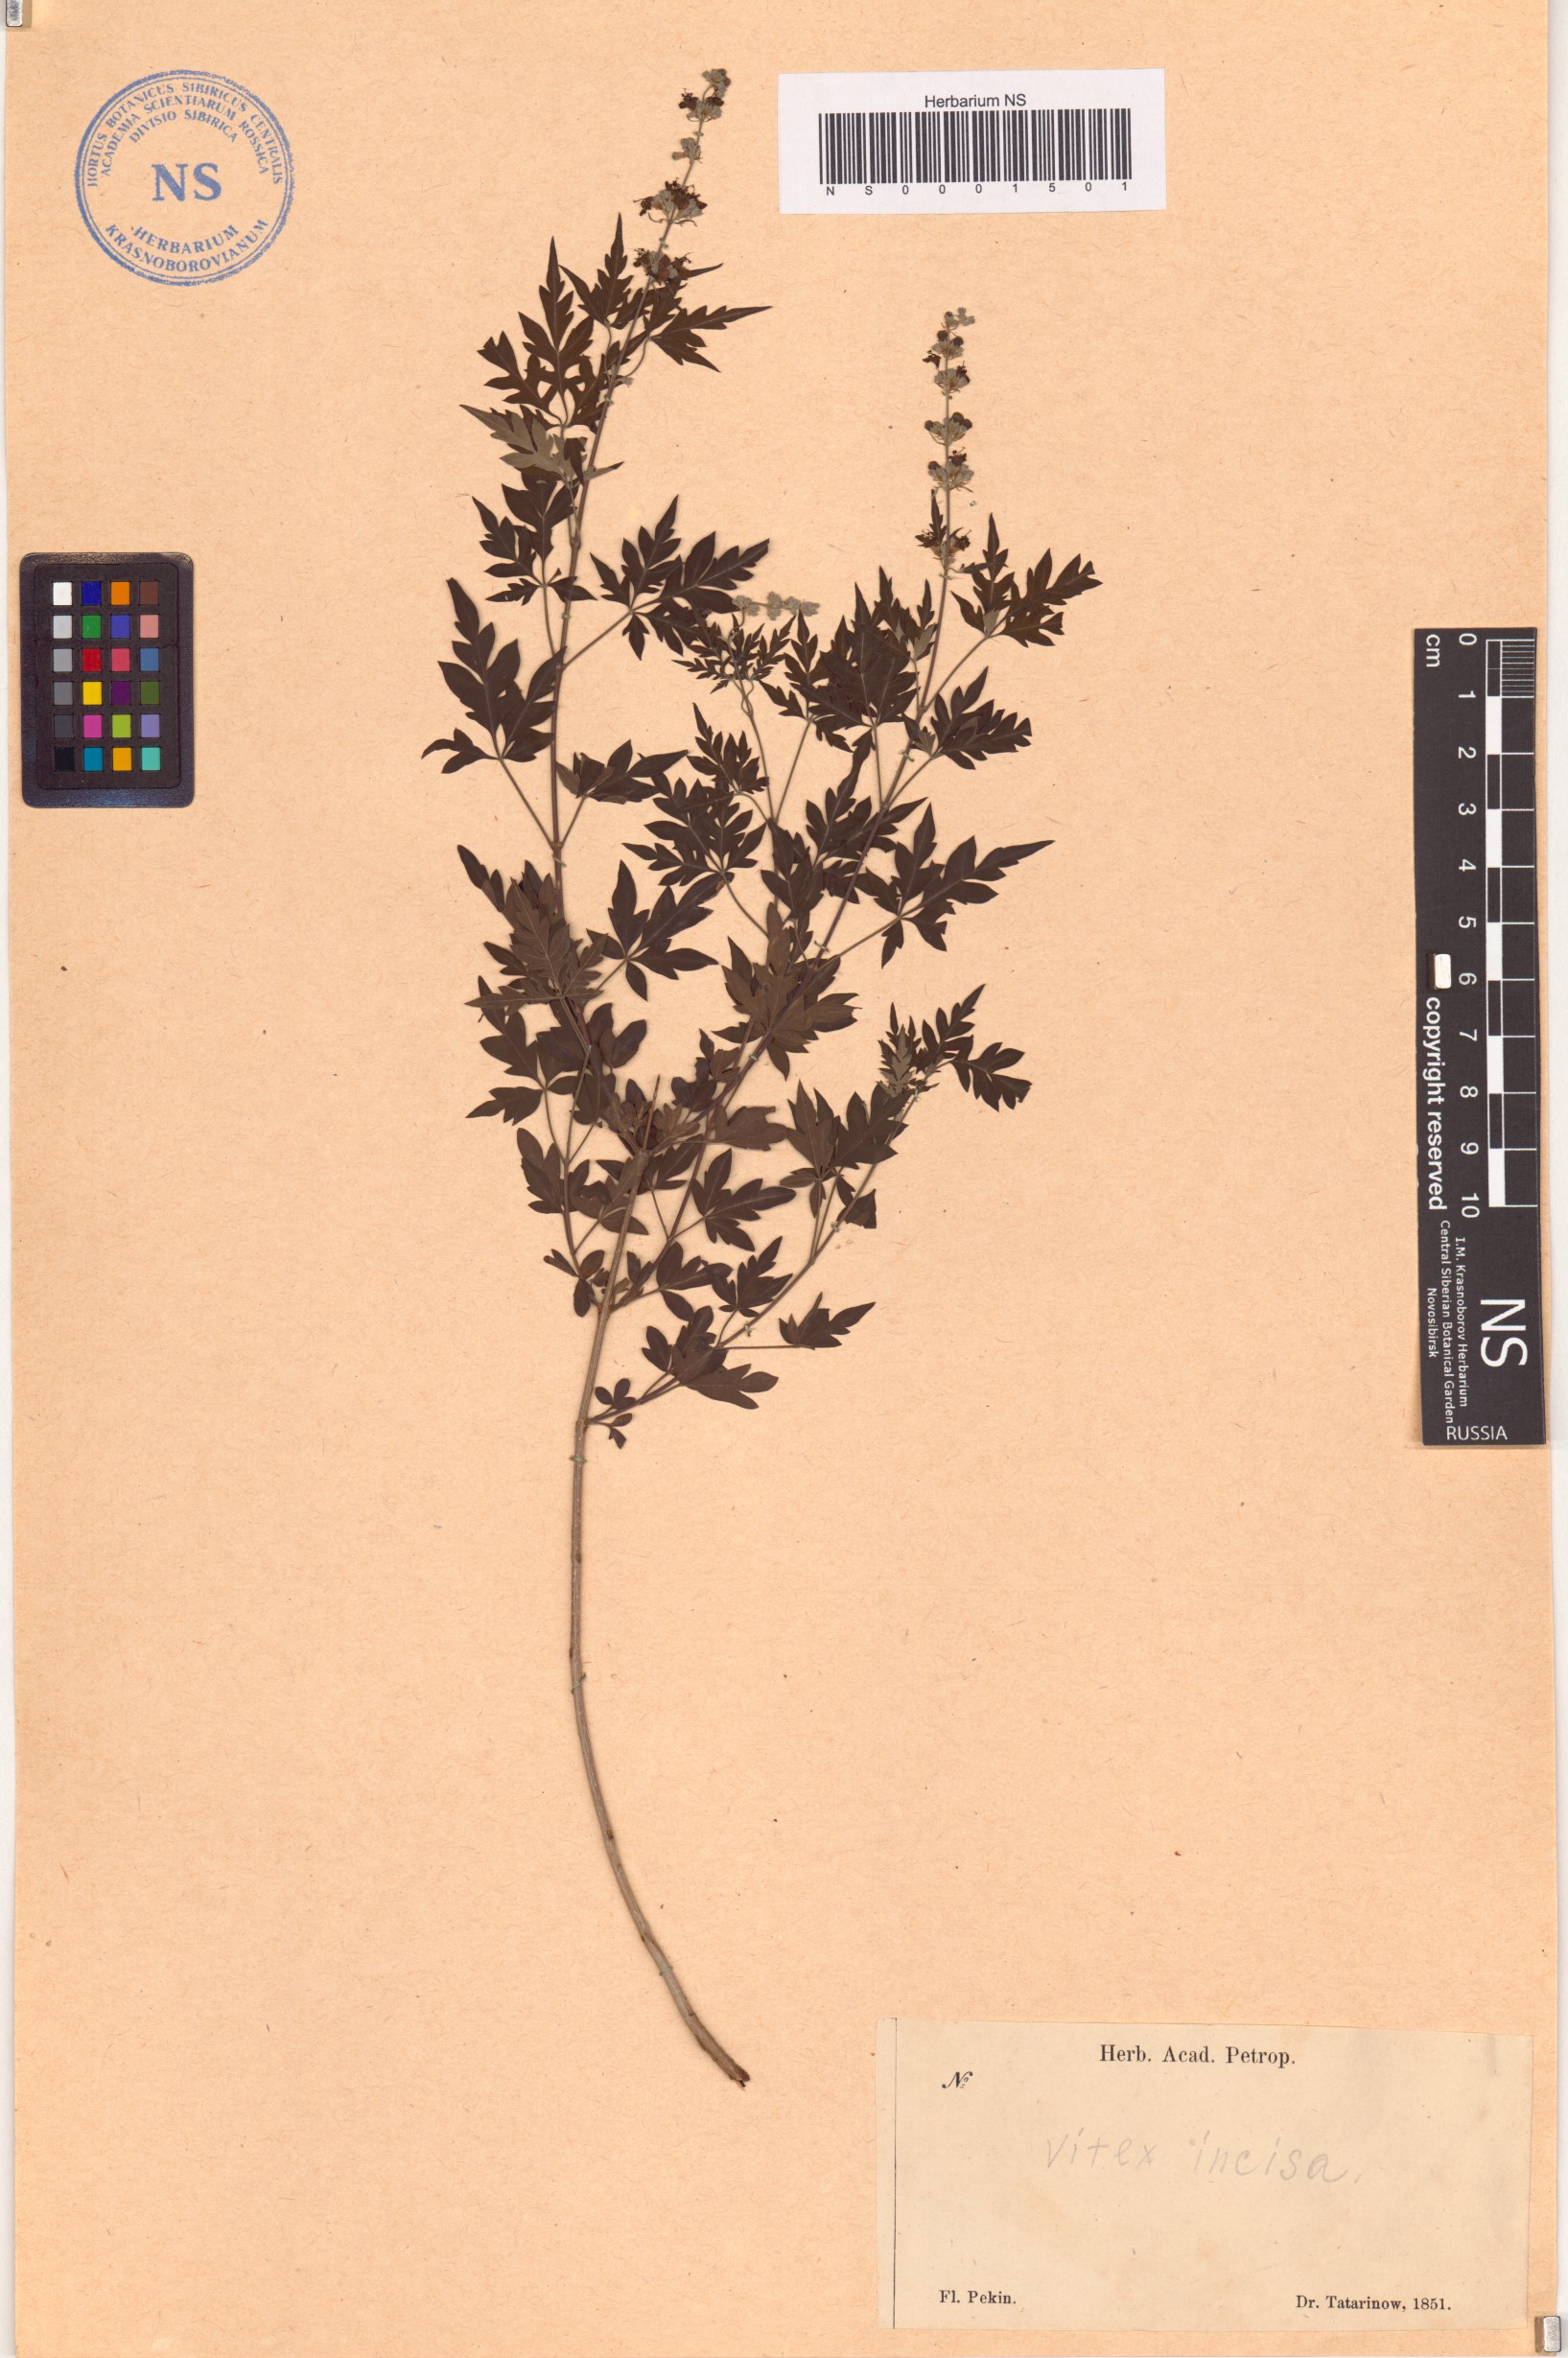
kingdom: Plantae
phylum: Tracheophyta
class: Magnoliopsida
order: Lamiales
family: Lamiaceae
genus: Vitex
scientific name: Vitex negundo
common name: Chinese chastetree
